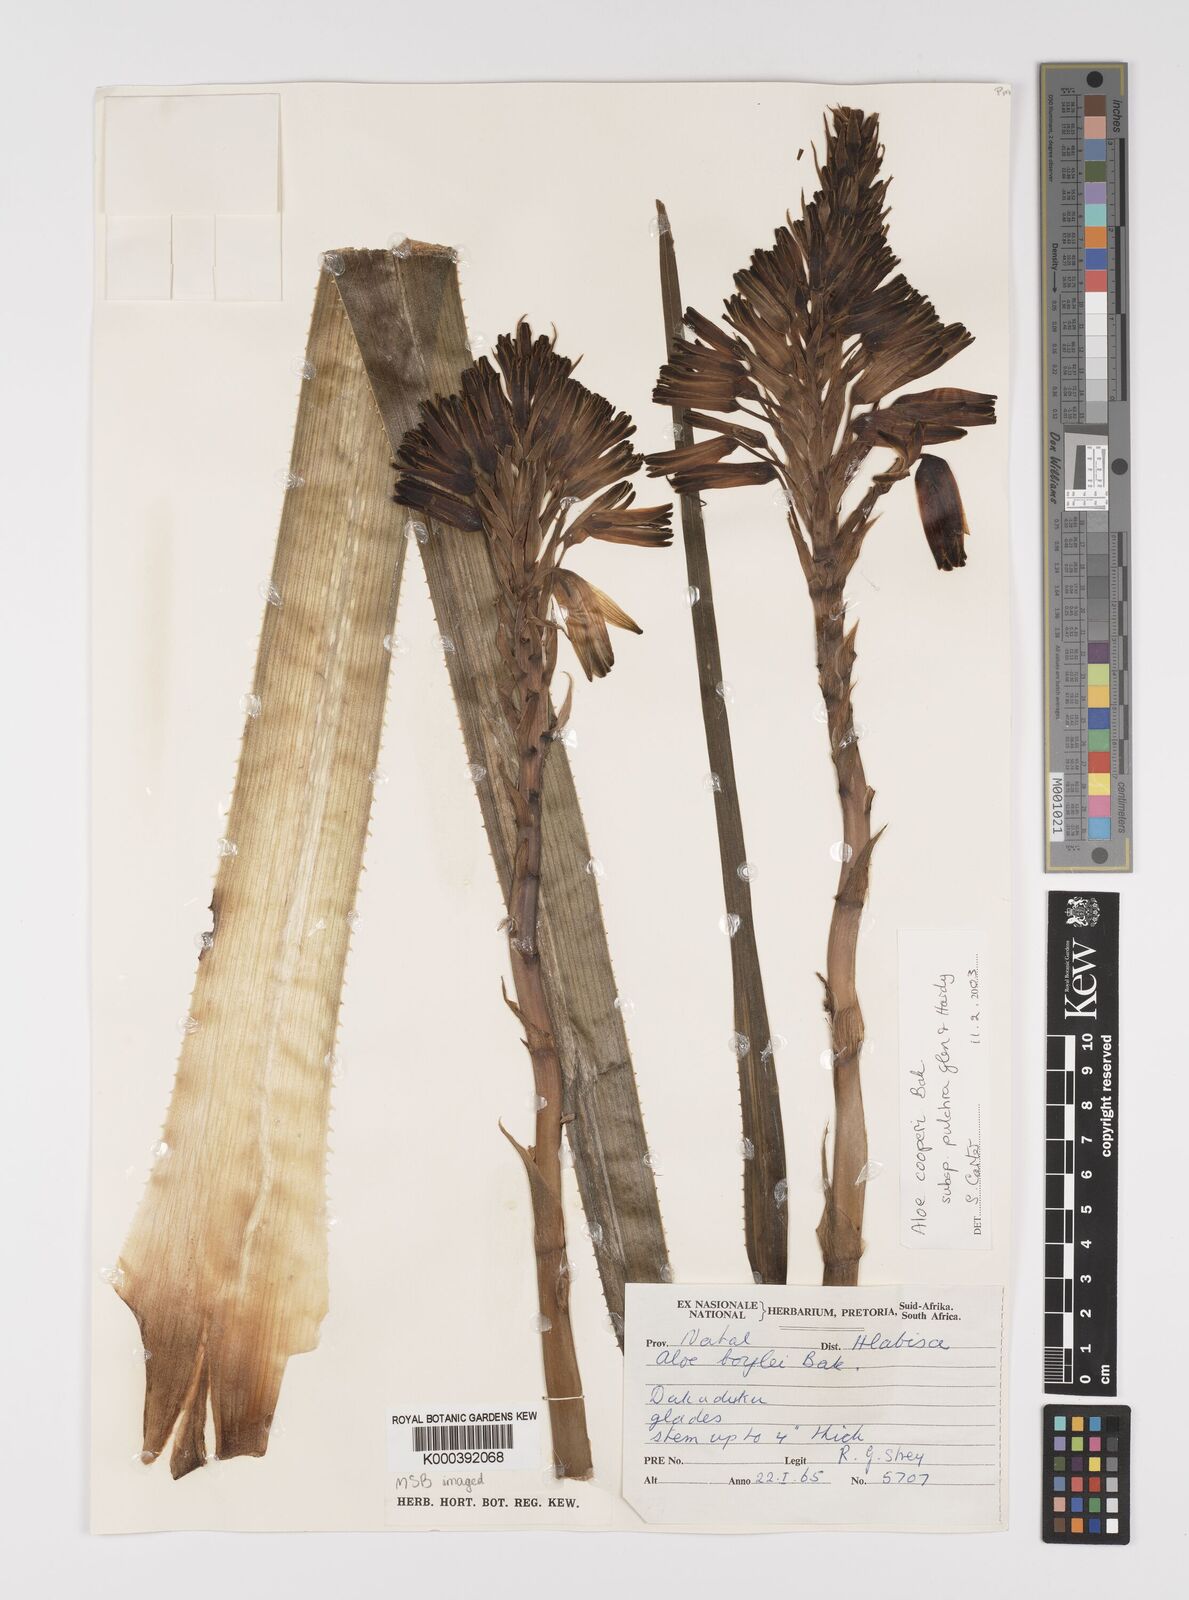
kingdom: Plantae
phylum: Tracheophyta
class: Liliopsida
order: Asparagales
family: Asphodelaceae
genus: Aloe
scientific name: Aloe sharoniae
